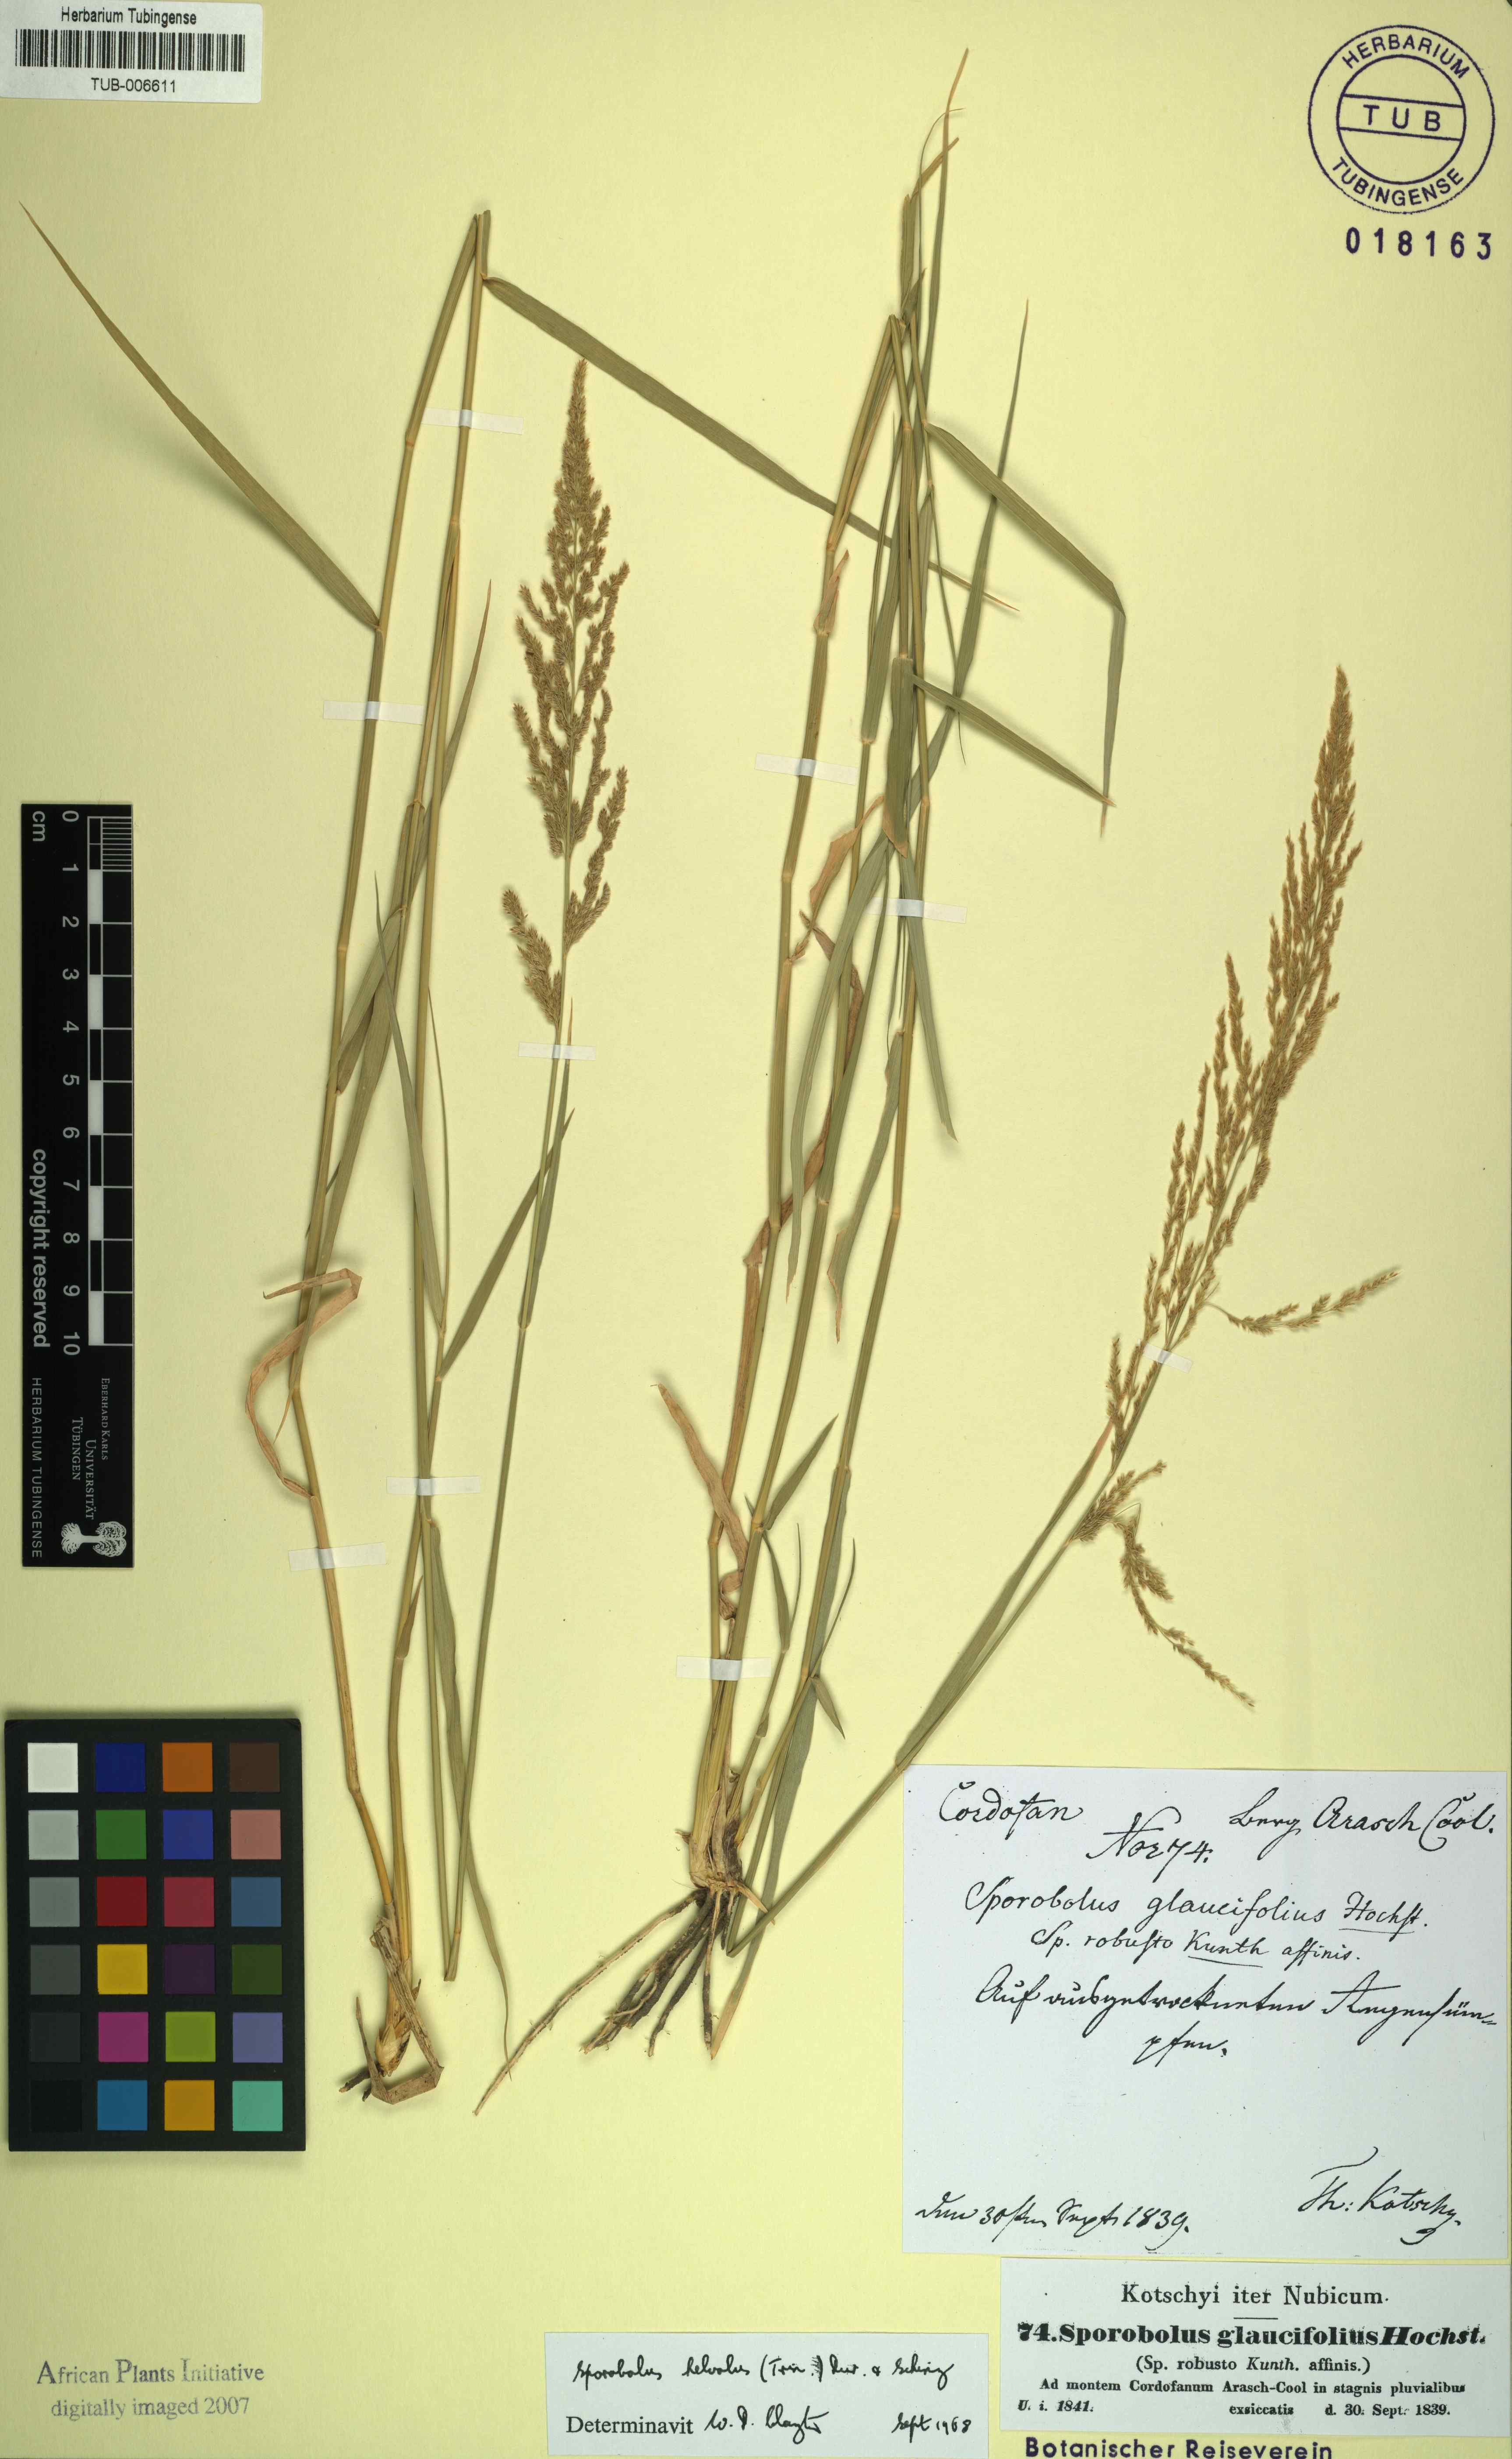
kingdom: Plantae
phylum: Tracheophyta
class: Liliopsida
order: Poales
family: Poaceae
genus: Sporobolus
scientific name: Sporobolus helvolus
